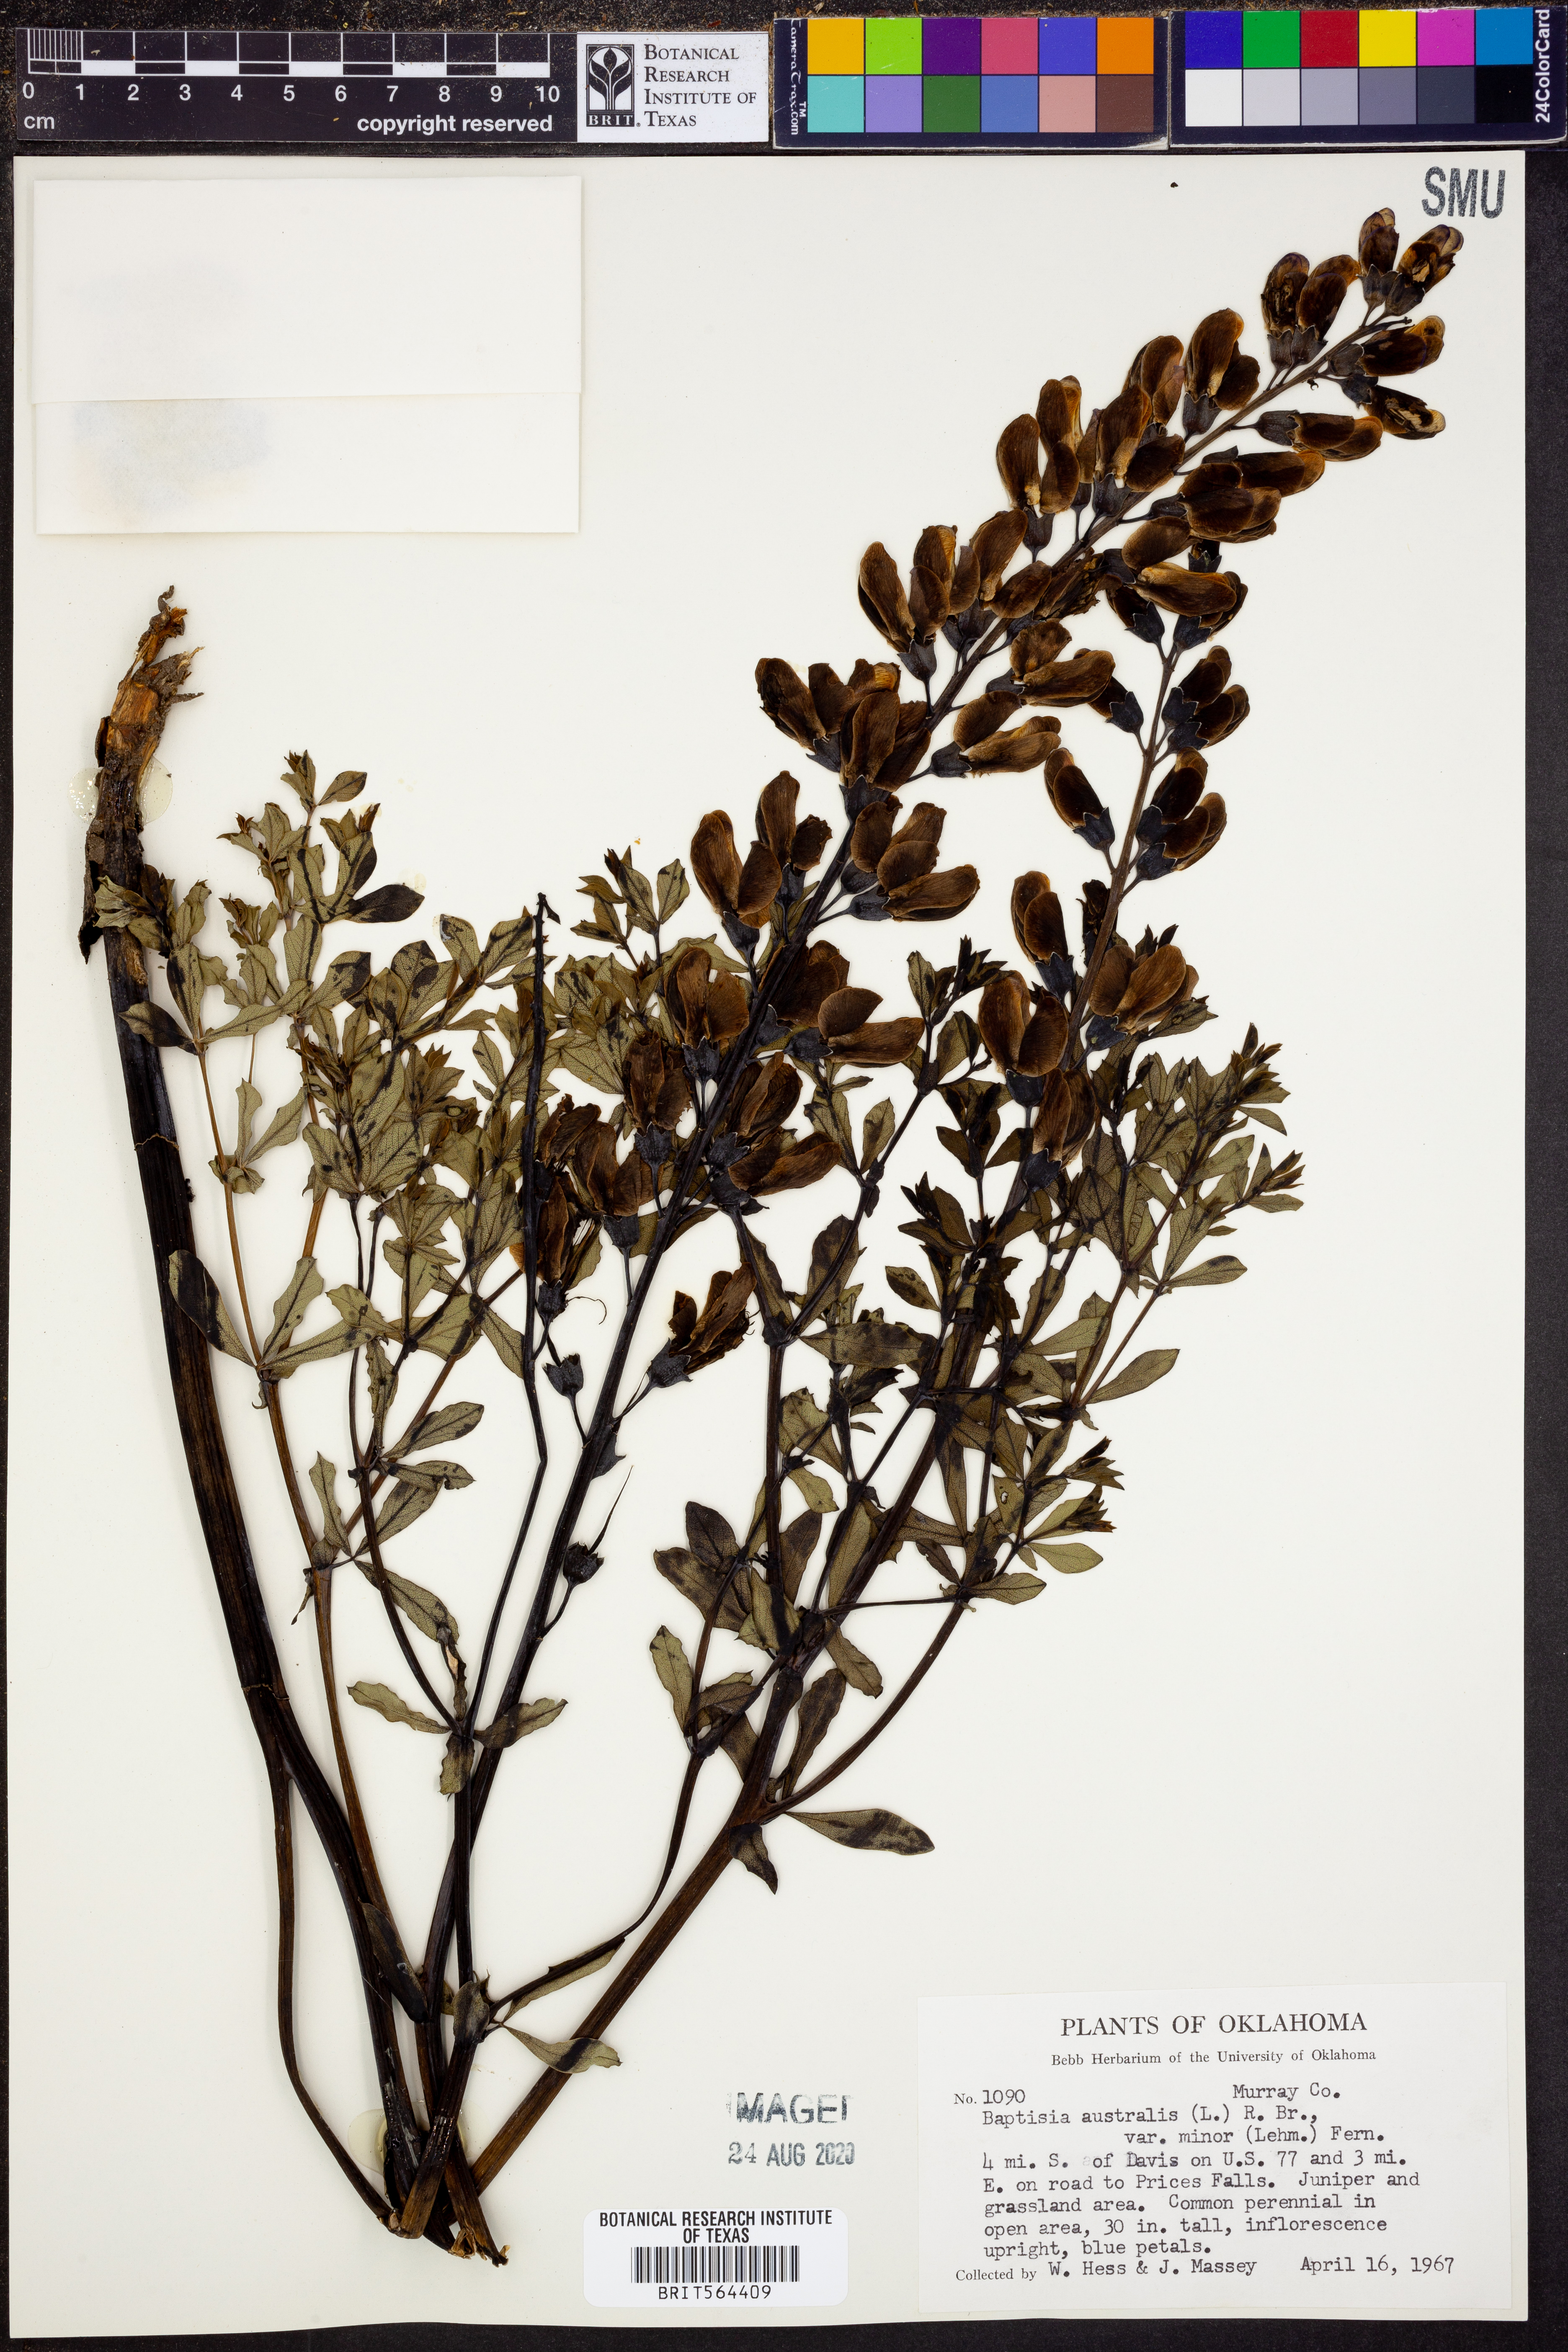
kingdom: Plantae
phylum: Tracheophyta
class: Magnoliopsida
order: Fabales
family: Fabaceae
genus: Baptisia
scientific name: Baptisia australis
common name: Blue false indigo
